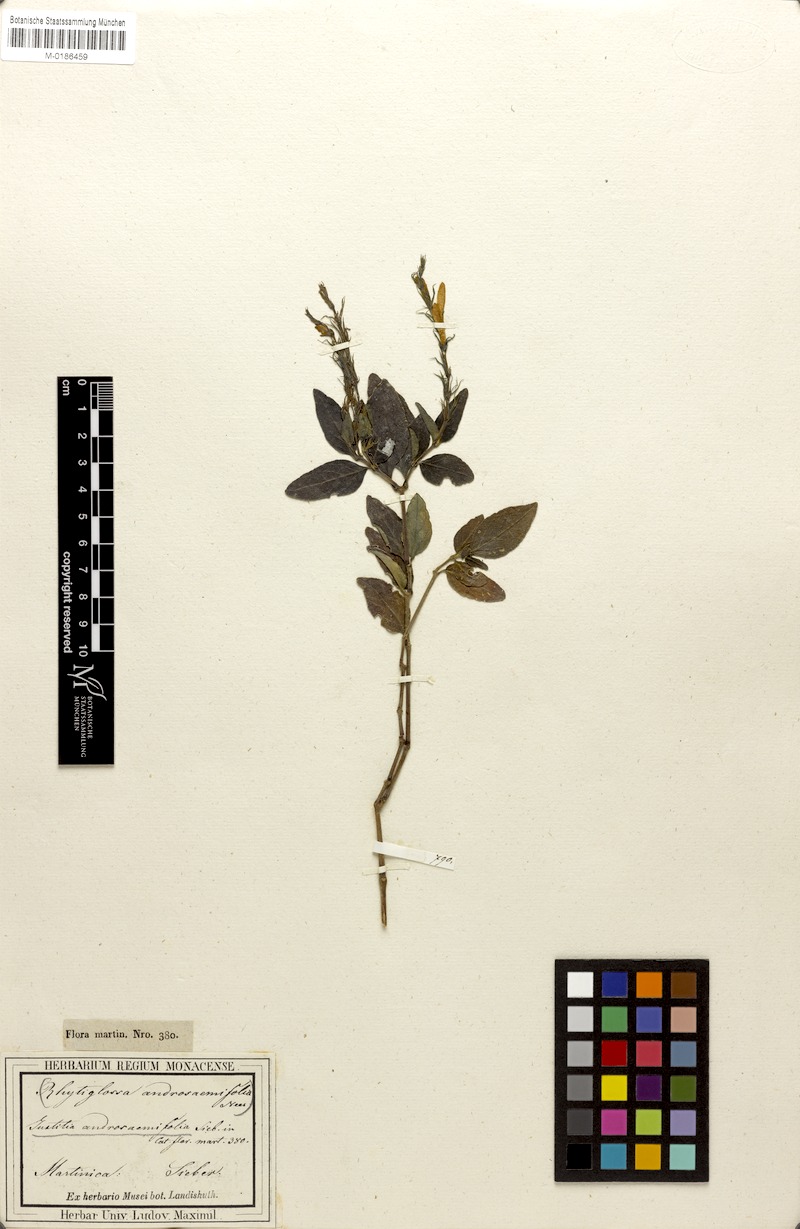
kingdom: Plantae
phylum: Tracheophyta
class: Magnoliopsida
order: Lamiales
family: Acanthaceae
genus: Dianthera
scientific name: Dianthera androsaemifolia
